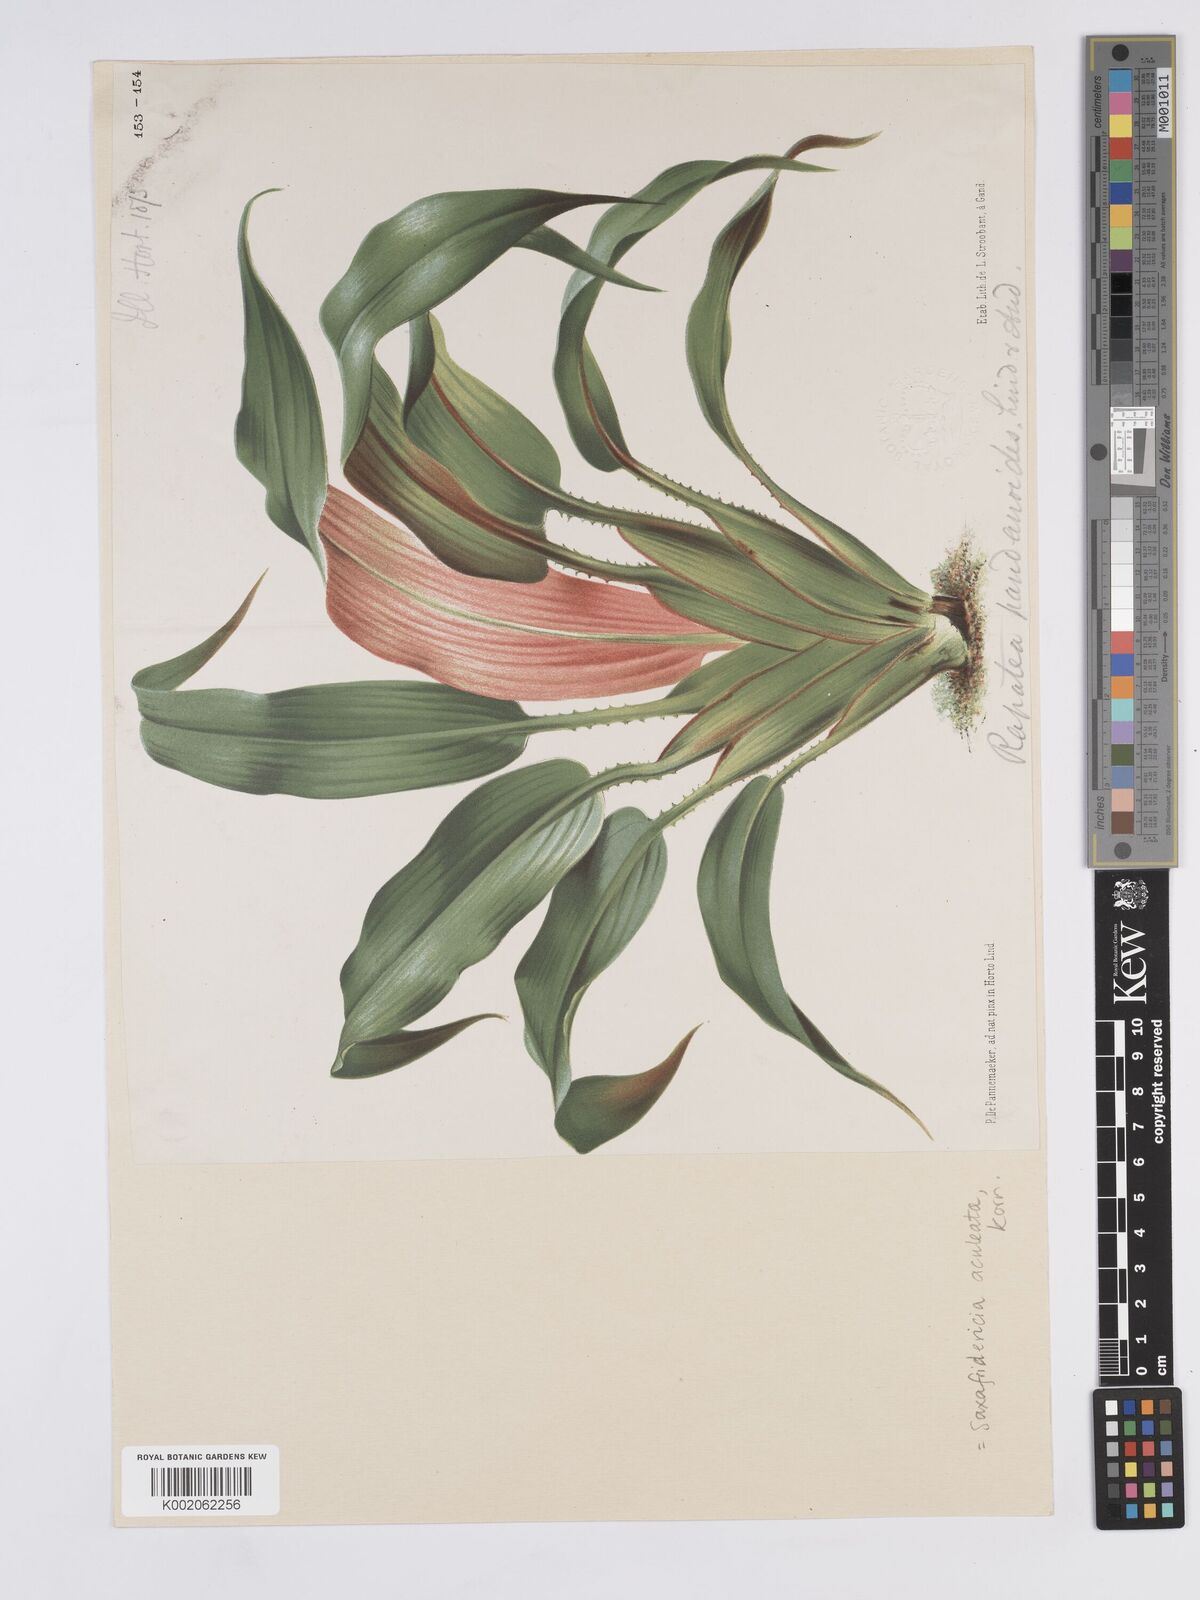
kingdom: Plantae
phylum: Tracheophyta
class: Liliopsida
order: Poales
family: Rapateaceae
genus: Saxofridericia
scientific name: Saxofridericia
